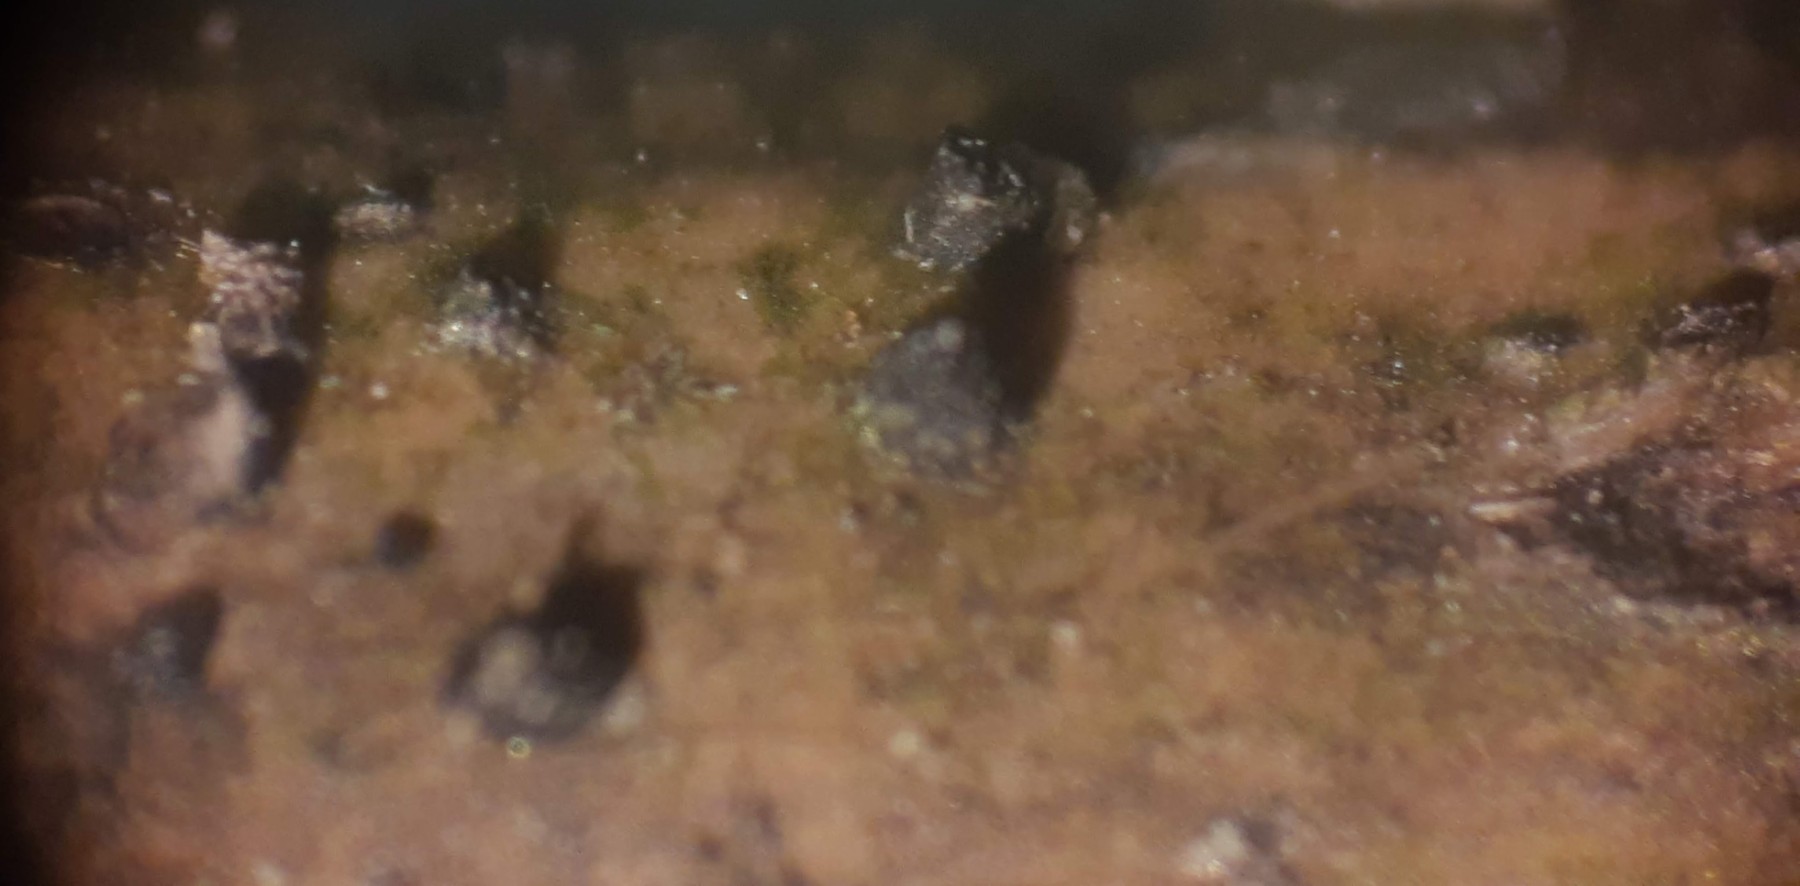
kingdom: Fungi
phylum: Ascomycota
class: Dothideomycetes
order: Pleosporales
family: Lophiostomataceae
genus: Lophiostoma
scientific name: Lophiostoma semiliberum
